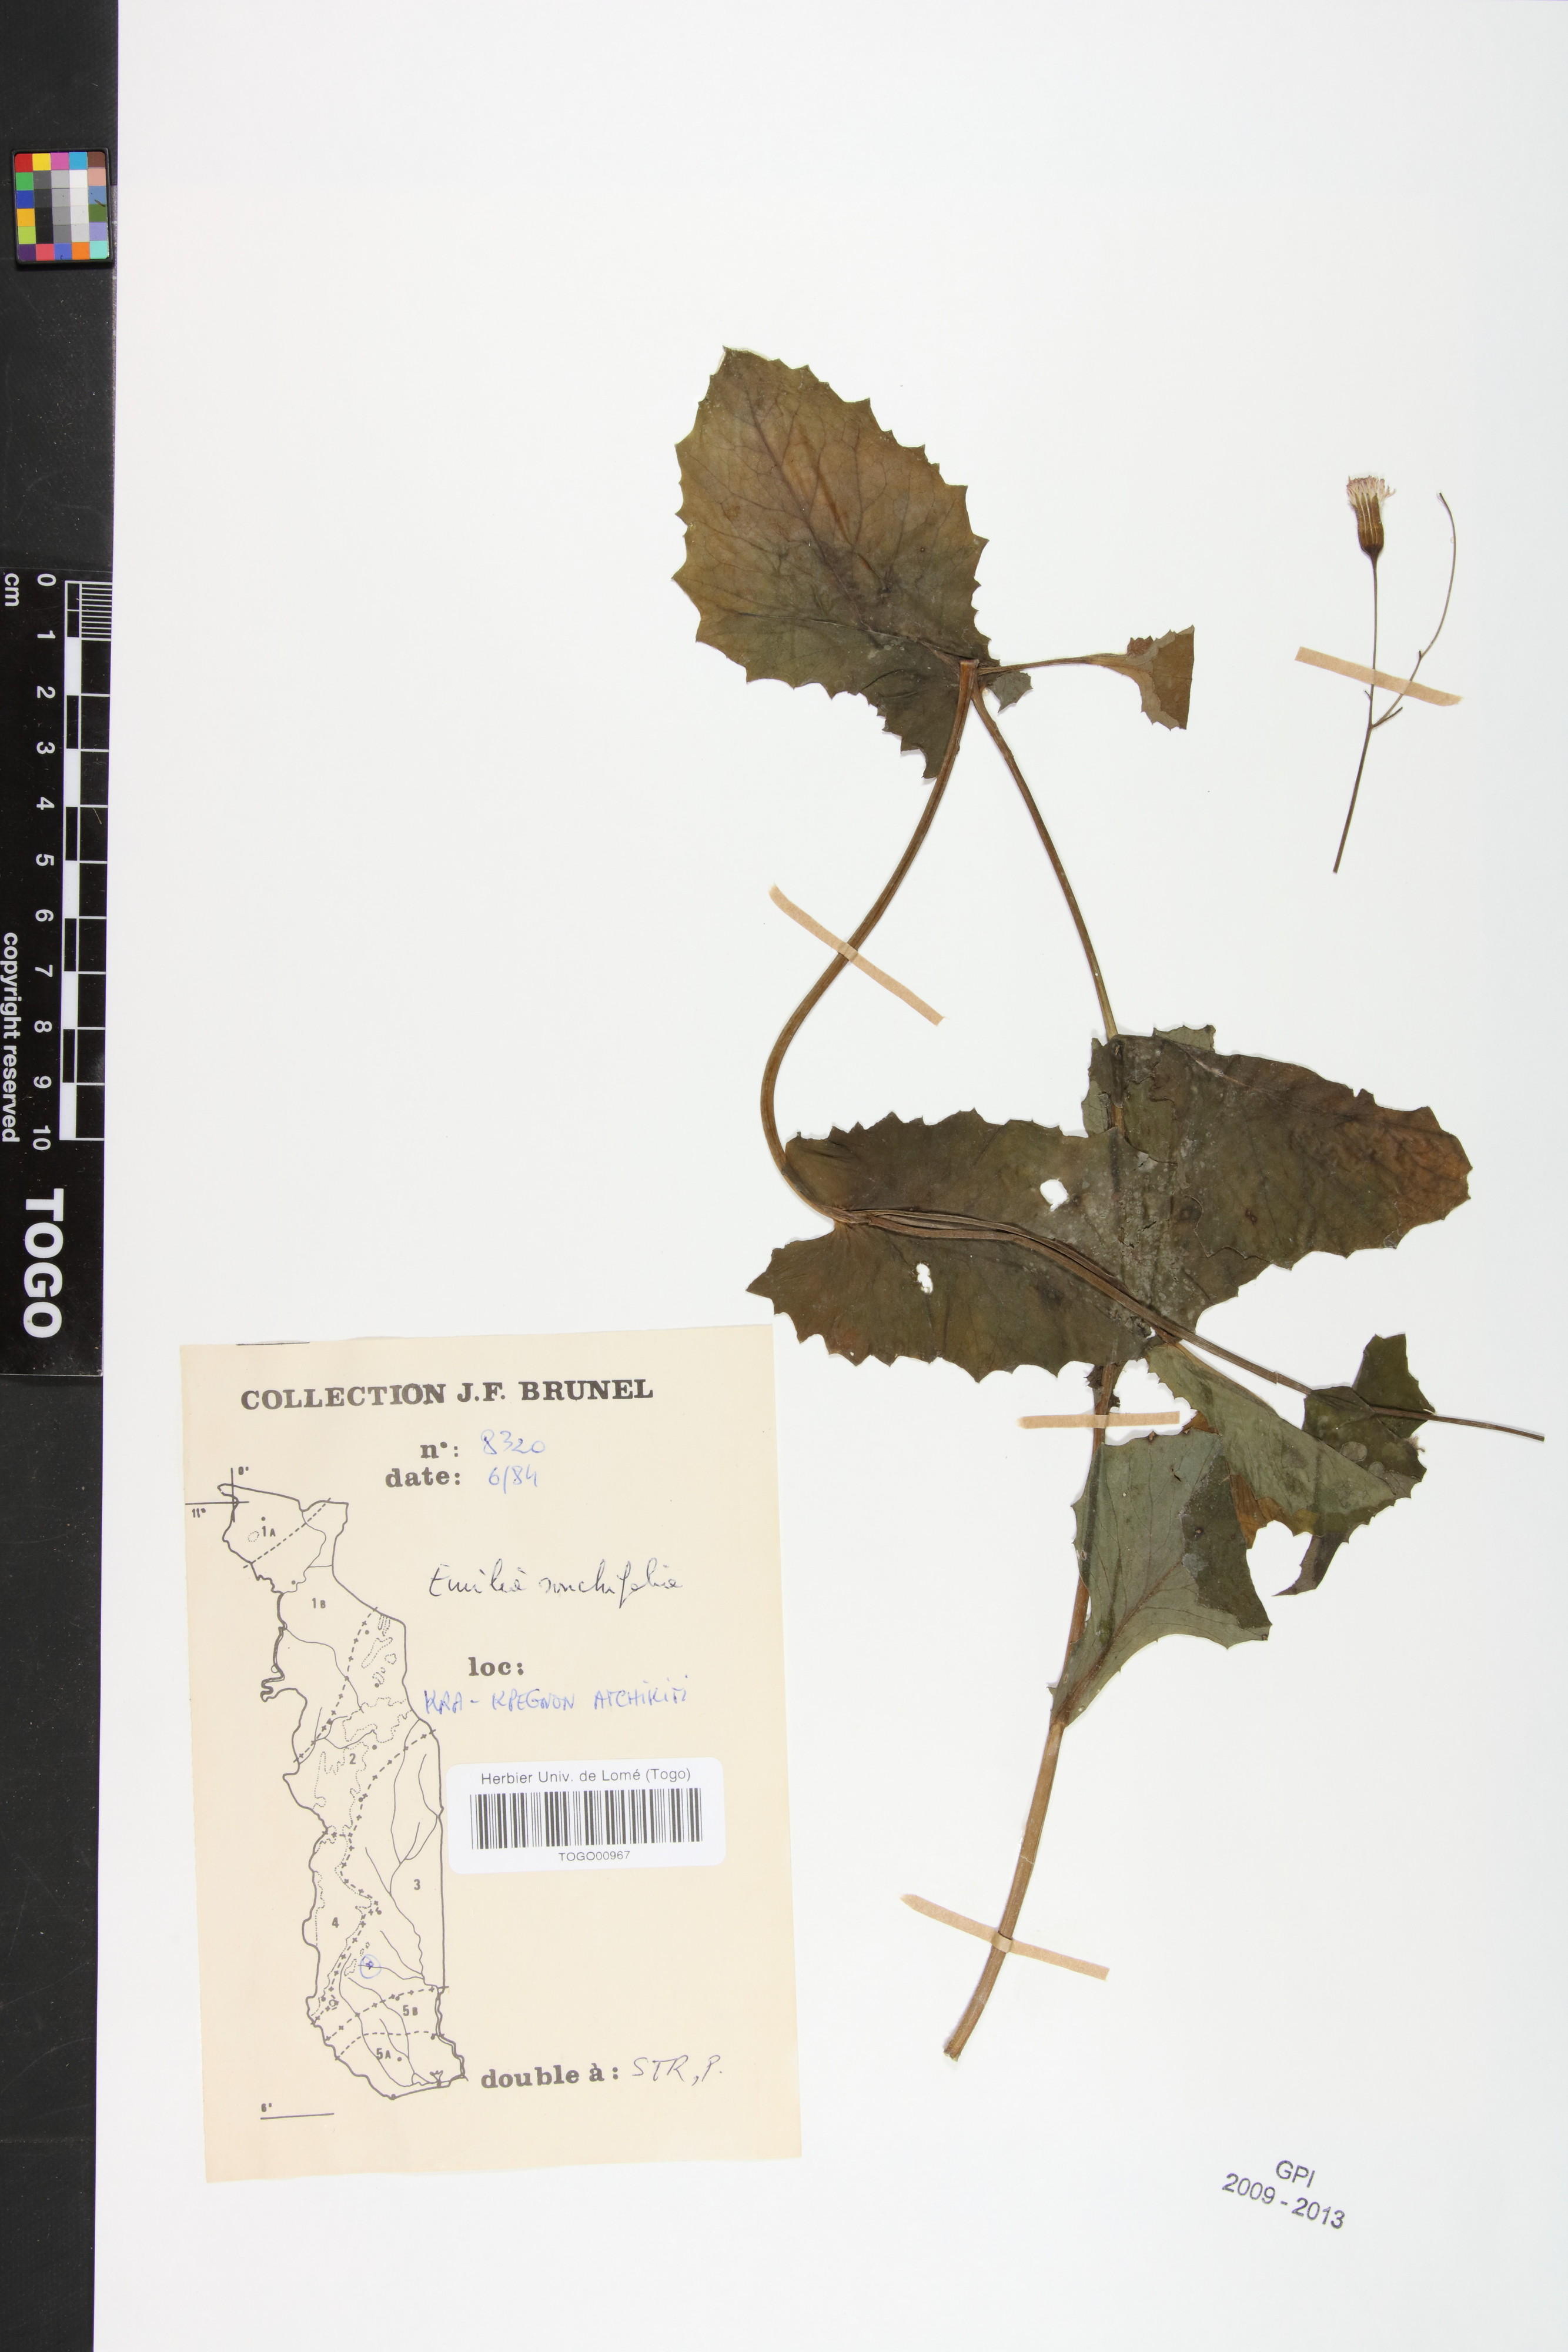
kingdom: Plantae
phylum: Tracheophyta
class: Magnoliopsida
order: Asterales
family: Asteraceae
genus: Emilia
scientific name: Emilia sonchifolia
